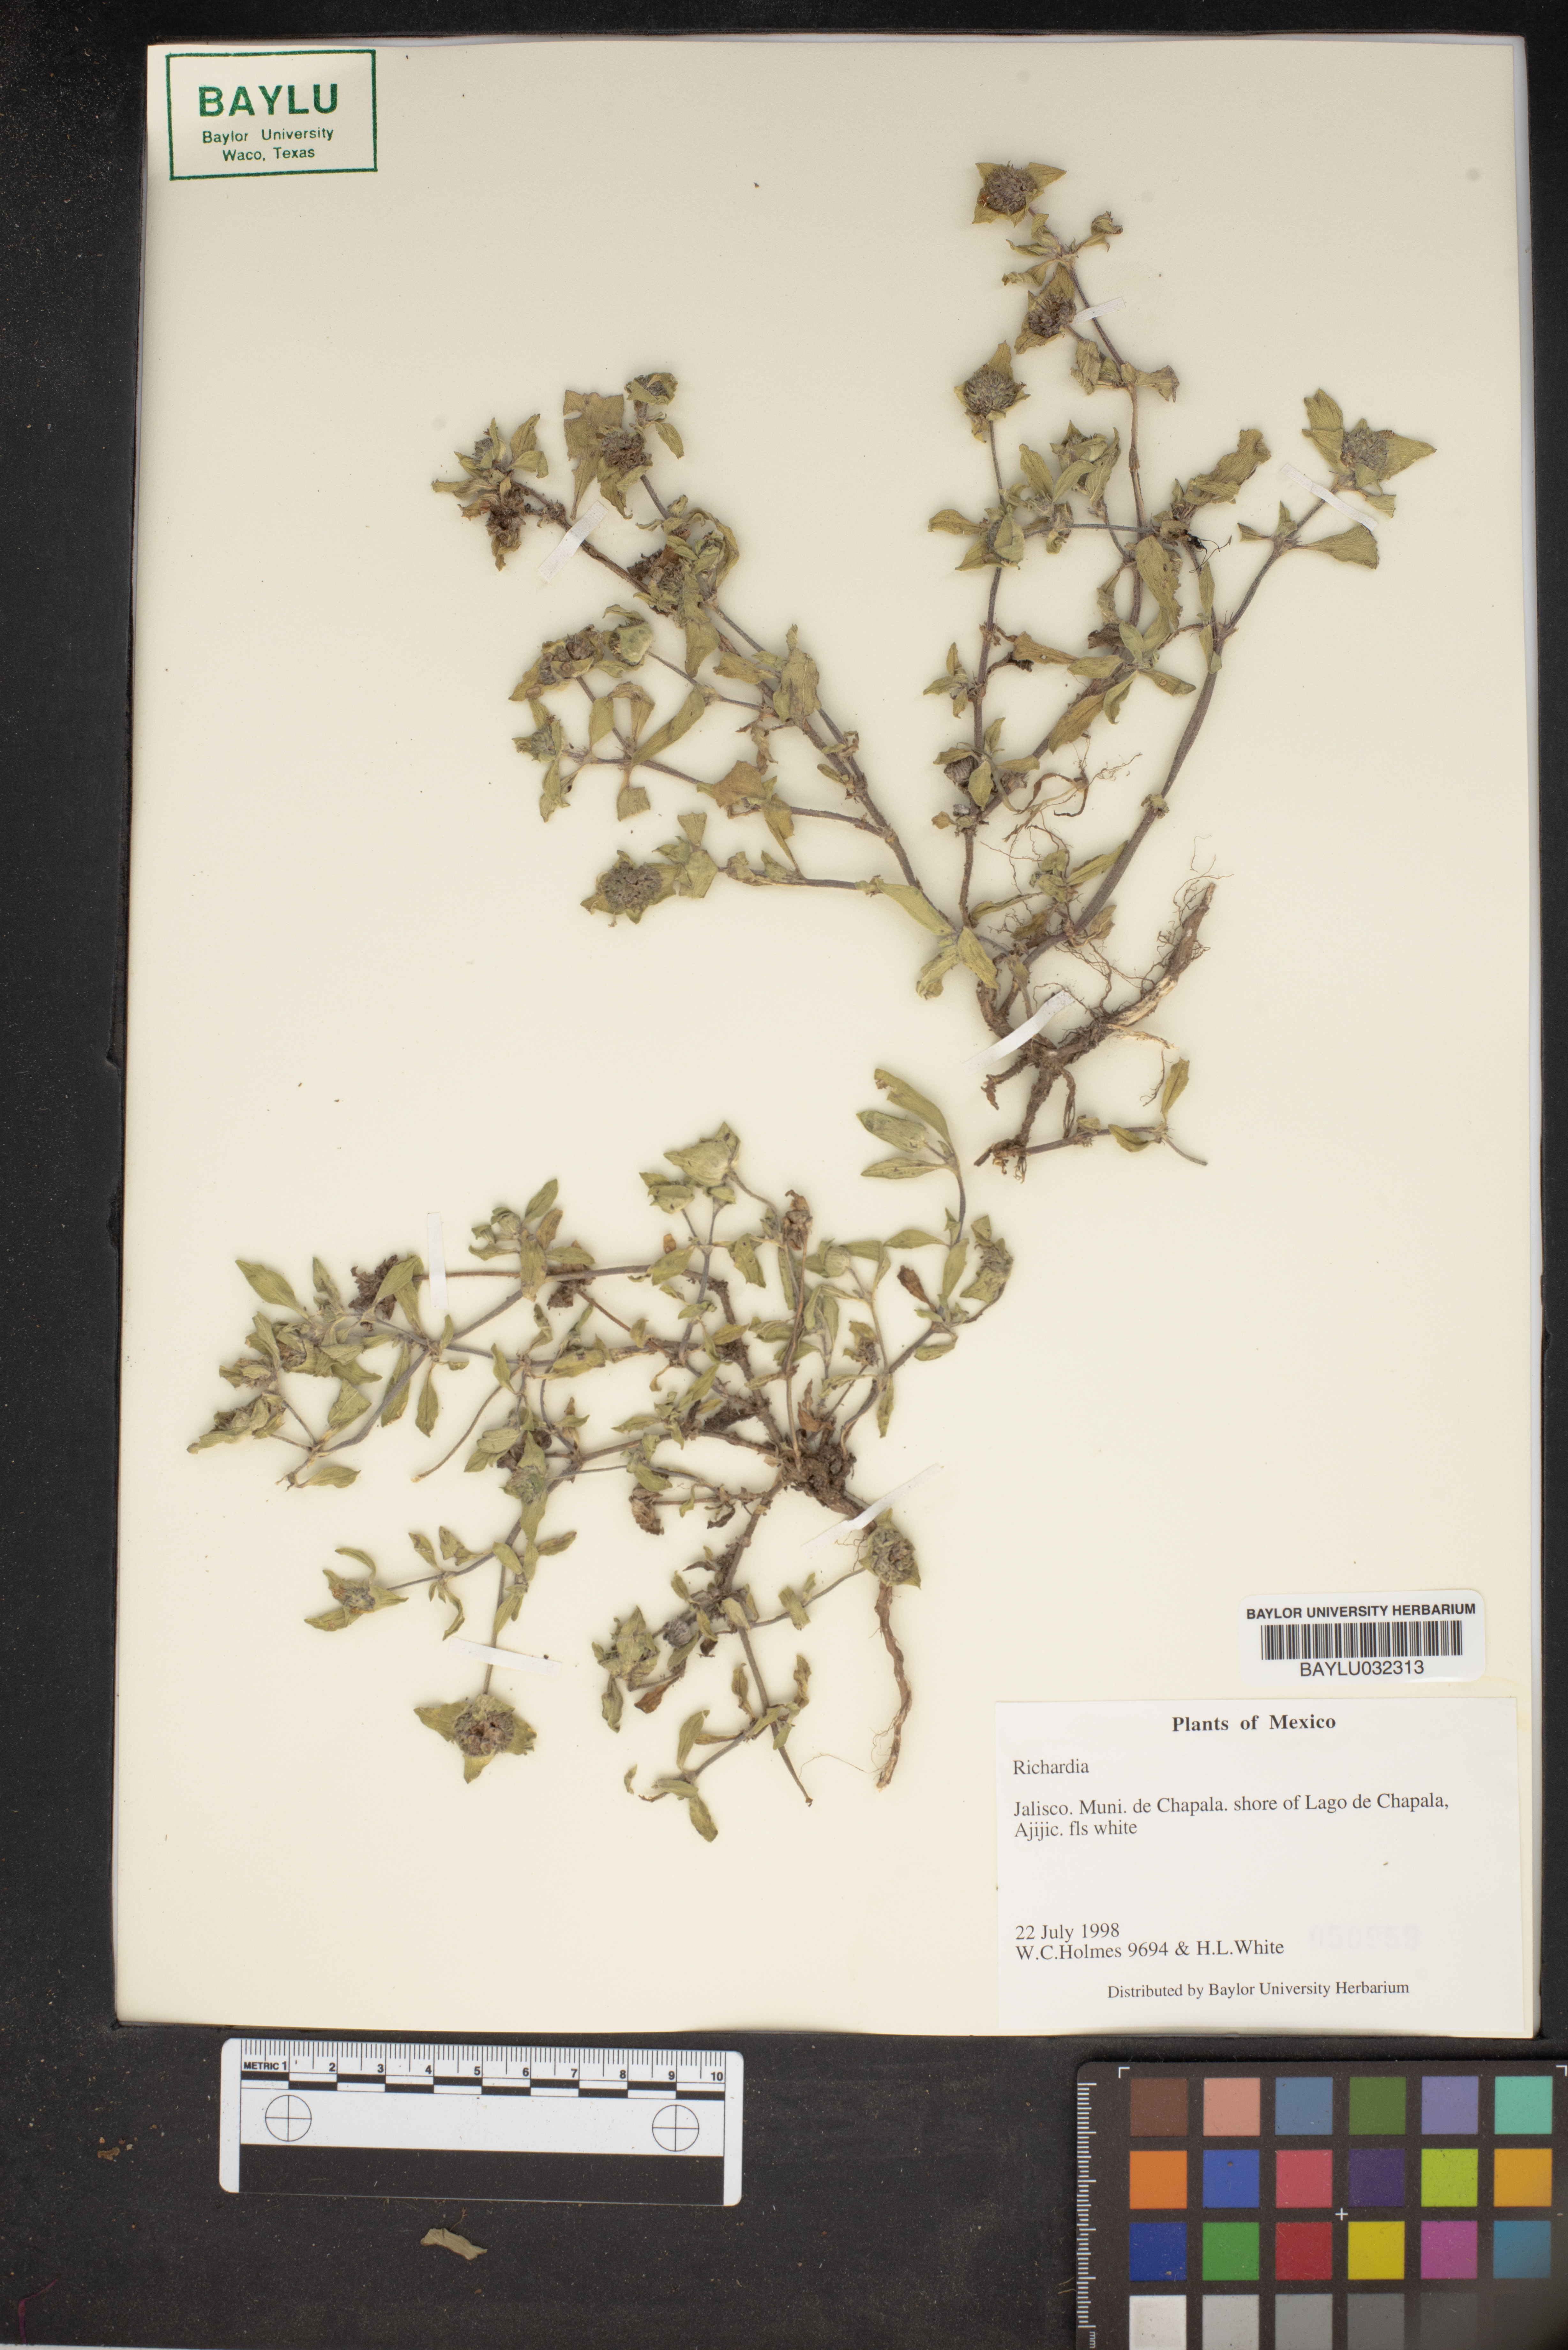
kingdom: Plantae
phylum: Tracheophyta
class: Magnoliopsida
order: Gentianales
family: Rubiaceae
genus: Richardia
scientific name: Richardia
